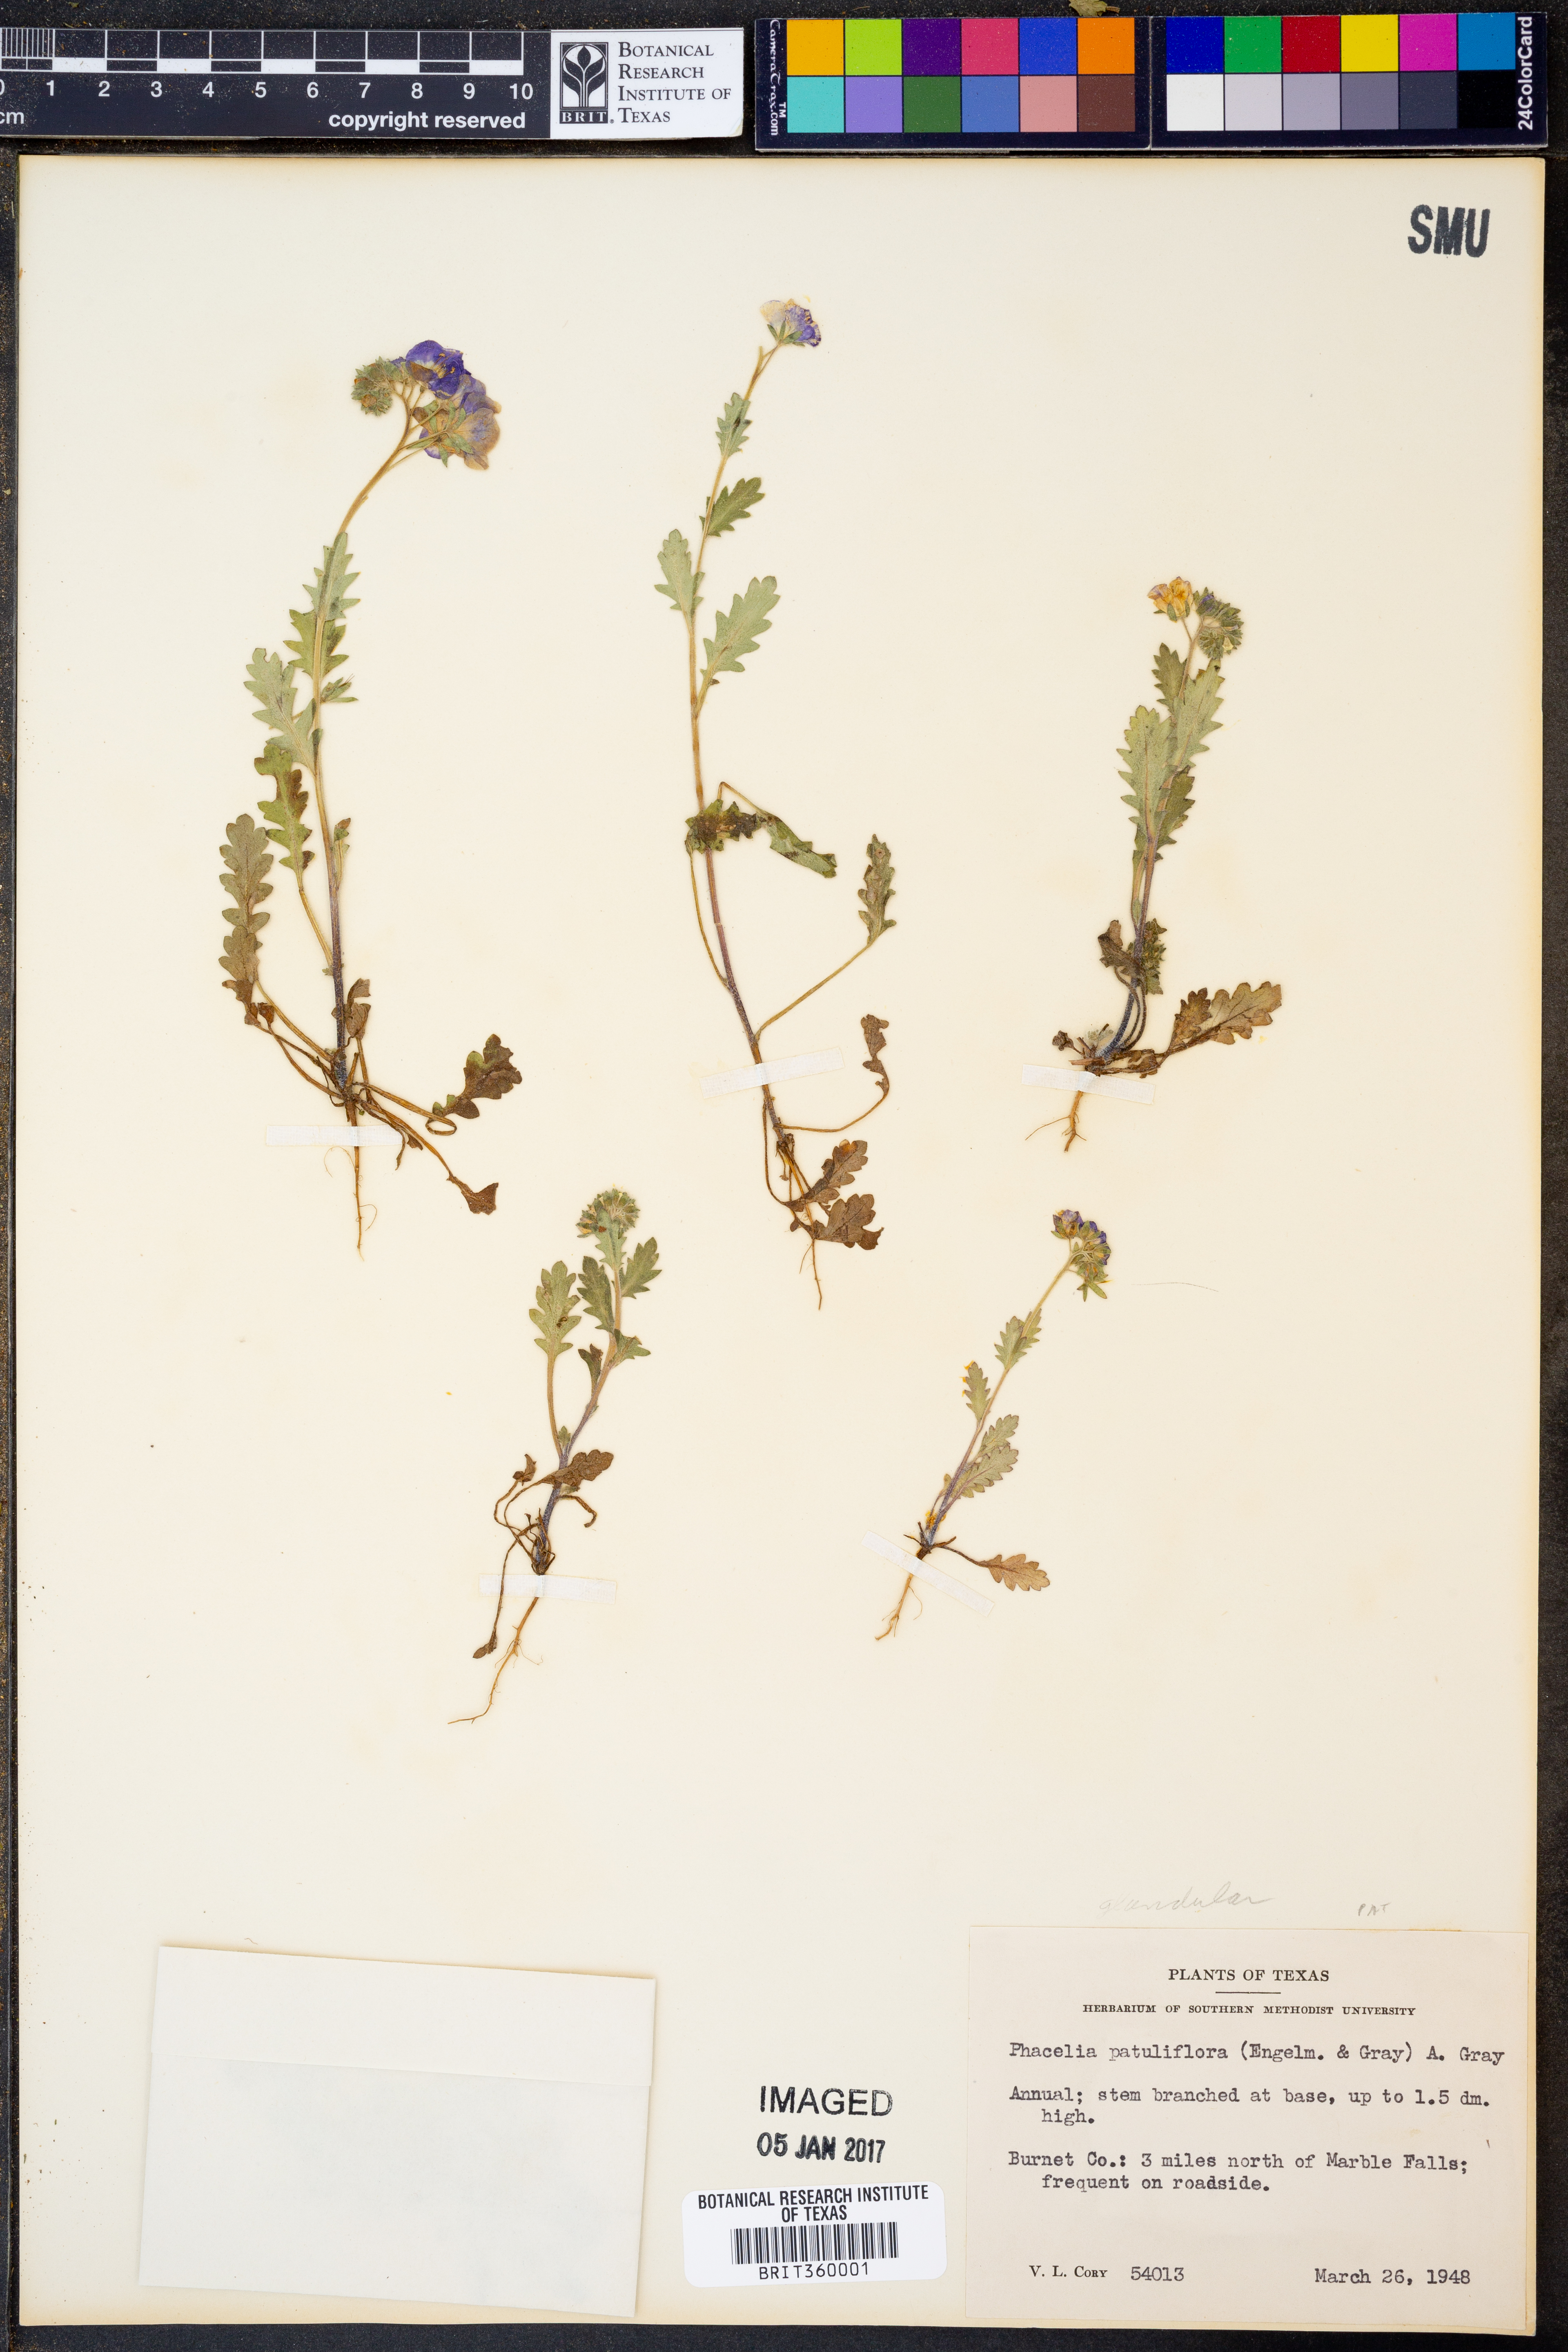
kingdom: Plantae
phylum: Tracheophyta
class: Magnoliopsida
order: Boraginales
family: Hydrophyllaceae
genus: Phacelia
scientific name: Phacelia patuliflora
